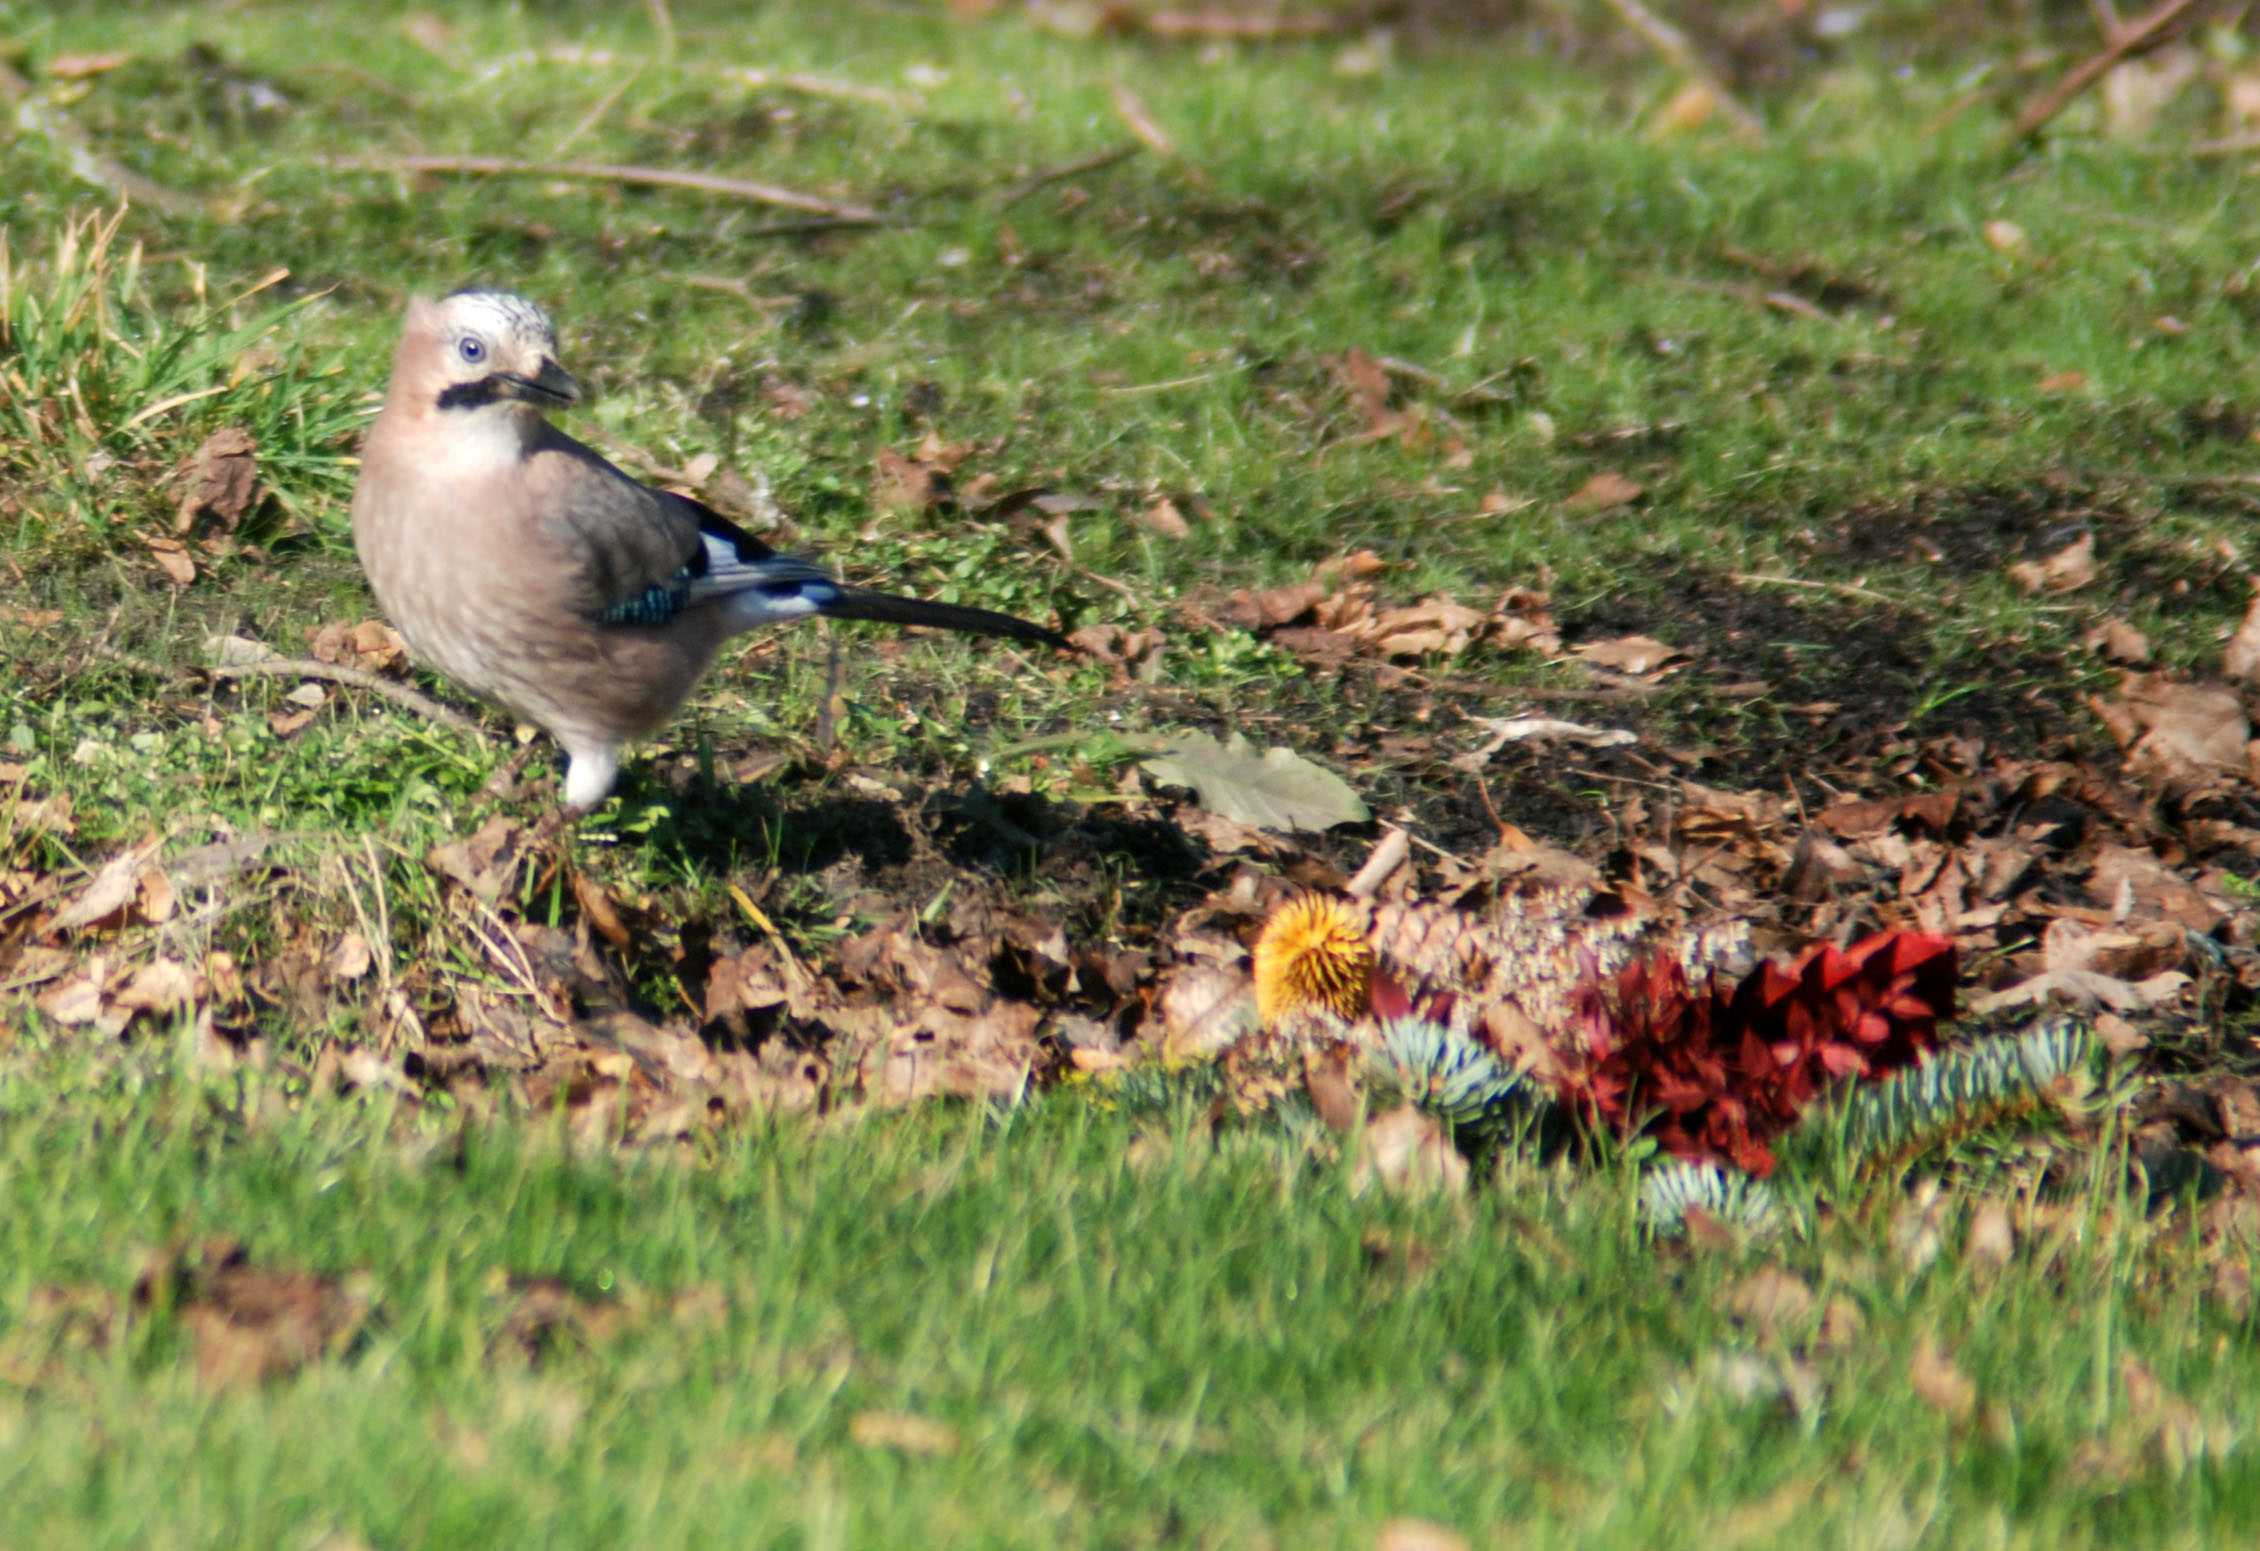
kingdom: Animalia
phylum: Chordata
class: Aves
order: Passeriformes
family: Corvidae
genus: Garrulus
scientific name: Garrulus glandarius
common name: Eurasian jay
